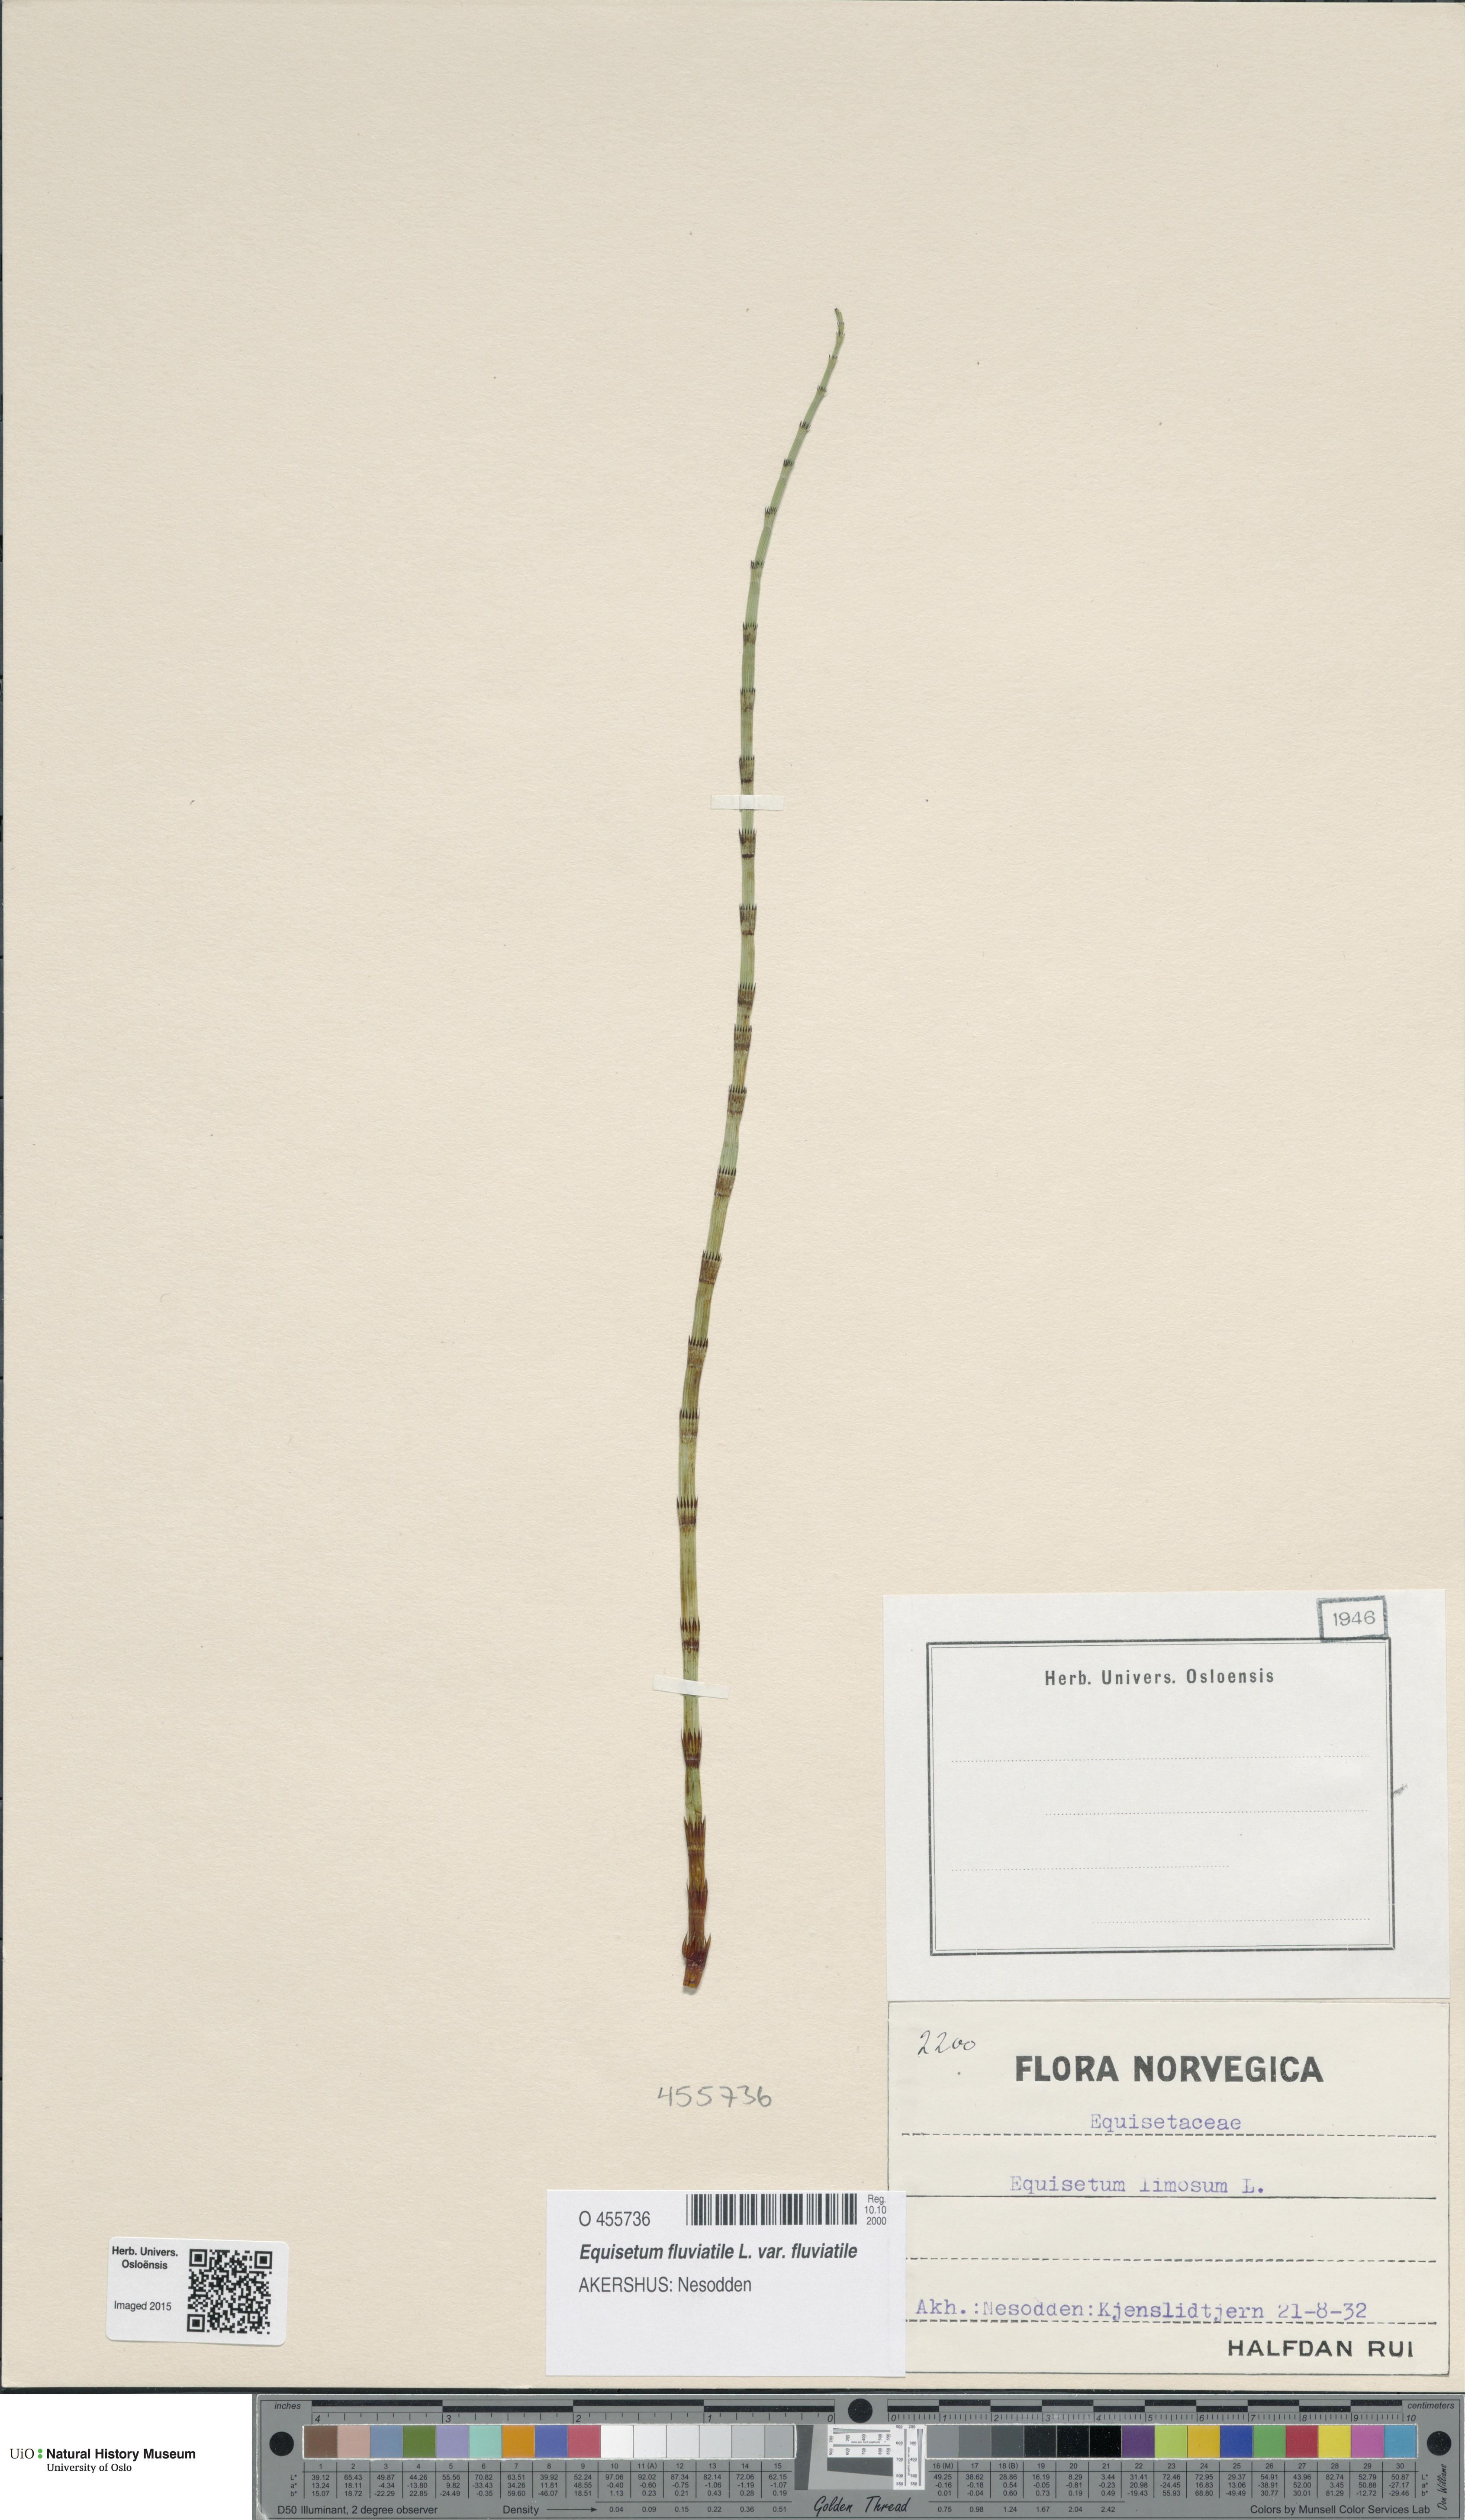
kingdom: Plantae
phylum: Tracheophyta
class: Polypodiopsida
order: Equisetales
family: Equisetaceae
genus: Equisetum
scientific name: Equisetum fluviatile
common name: Water horsetail
